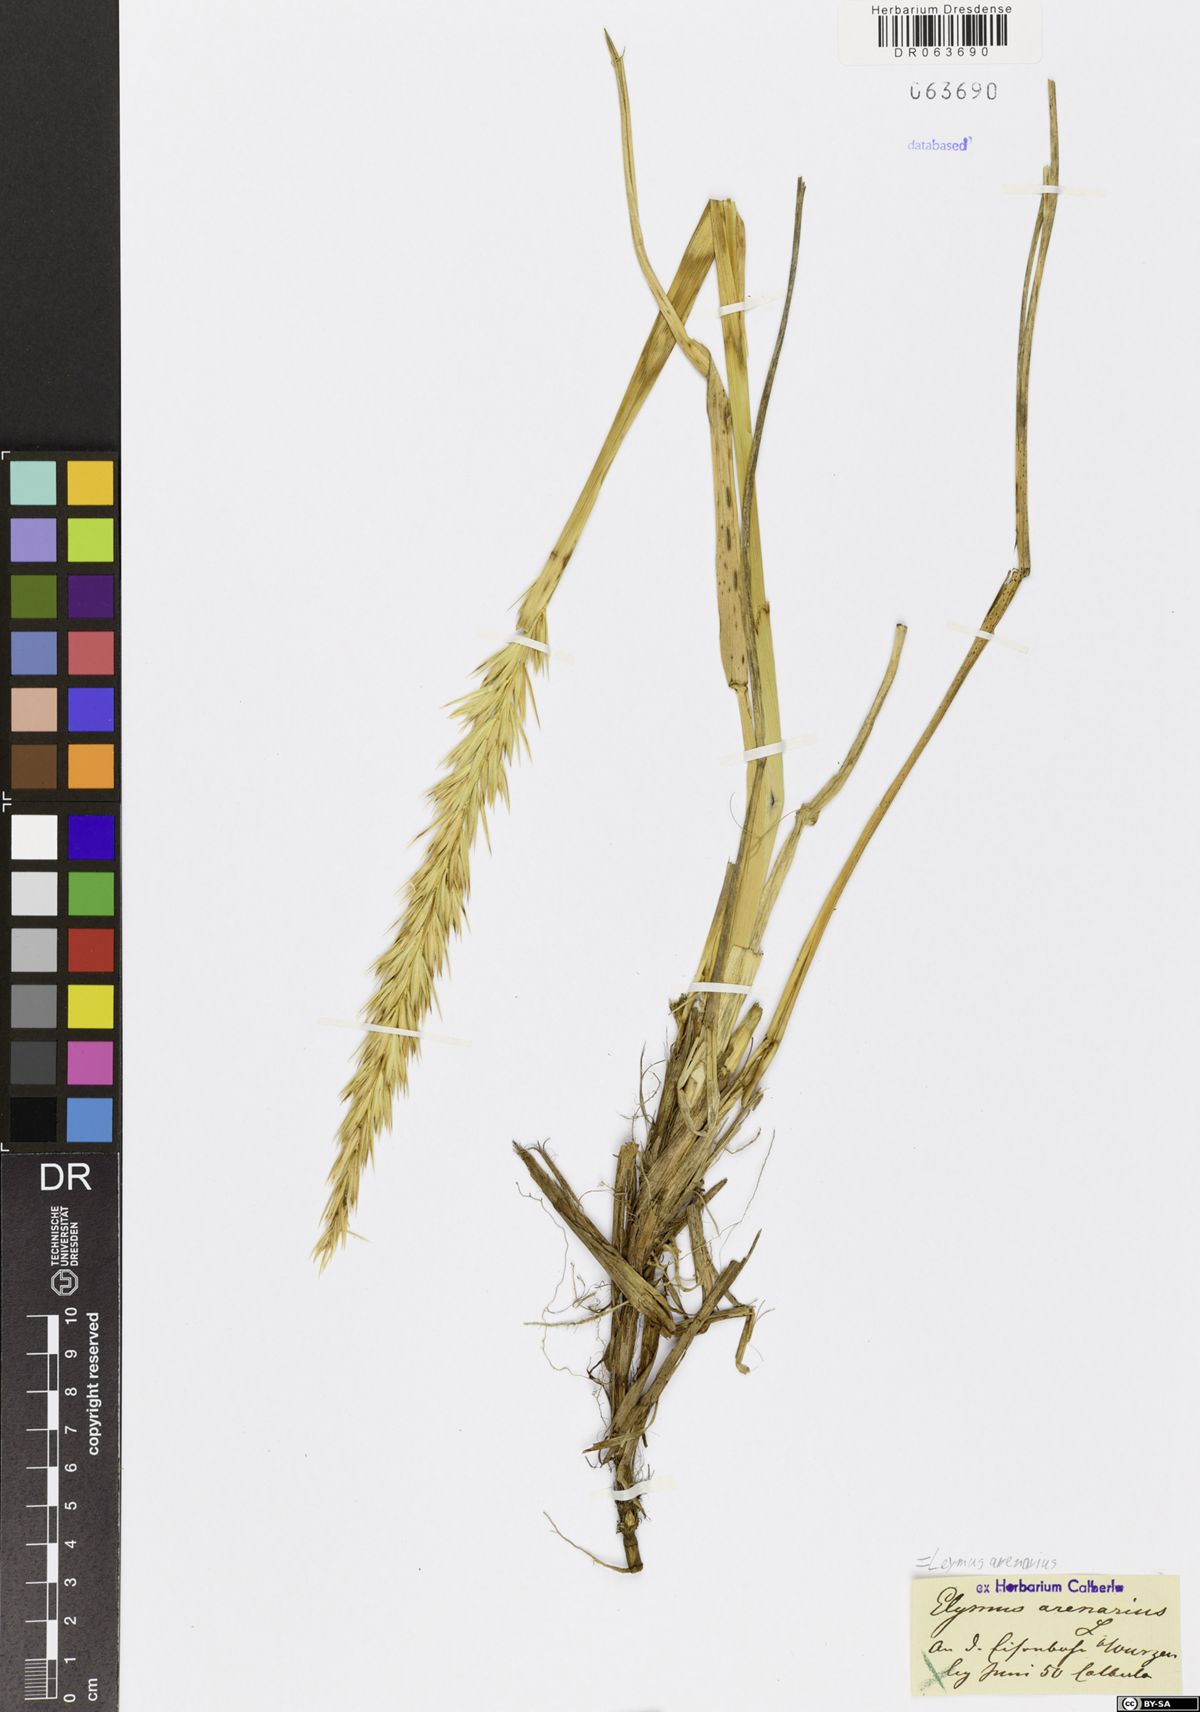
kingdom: Plantae
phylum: Tracheophyta
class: Liliopsida
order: Poales
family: Poaceae
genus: Leymus
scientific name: Leymus arenarius
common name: Lyme-grass
